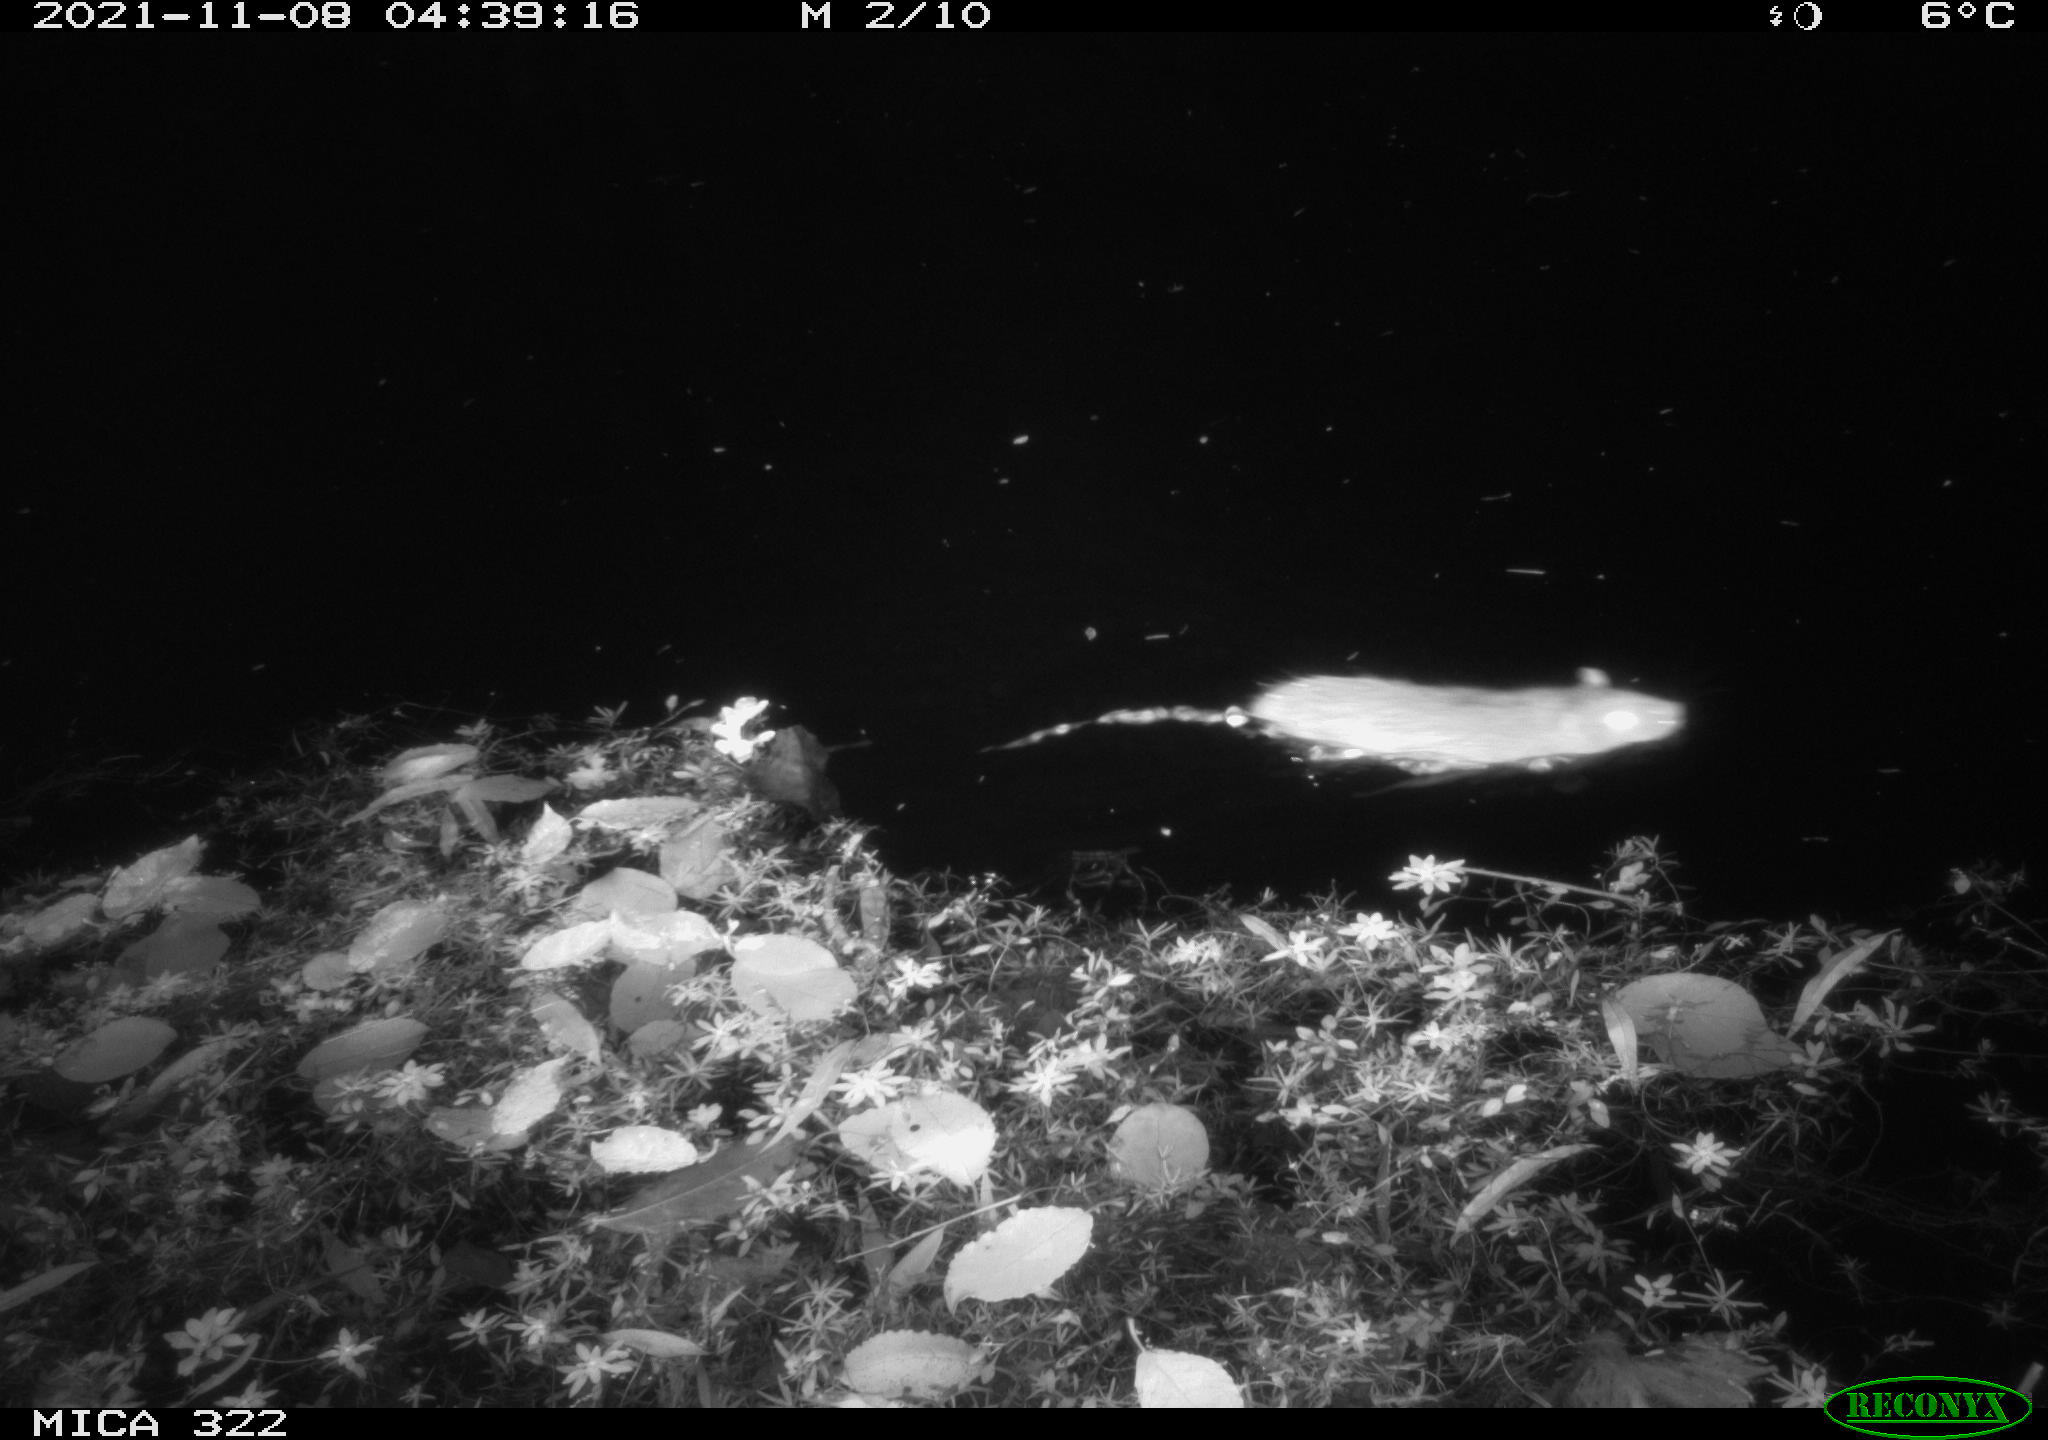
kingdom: Animalia
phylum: Chordata
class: Mammalia
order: Rodentia
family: Muridae
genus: Rattus
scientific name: Rattus norvegicus
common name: Brown rat
